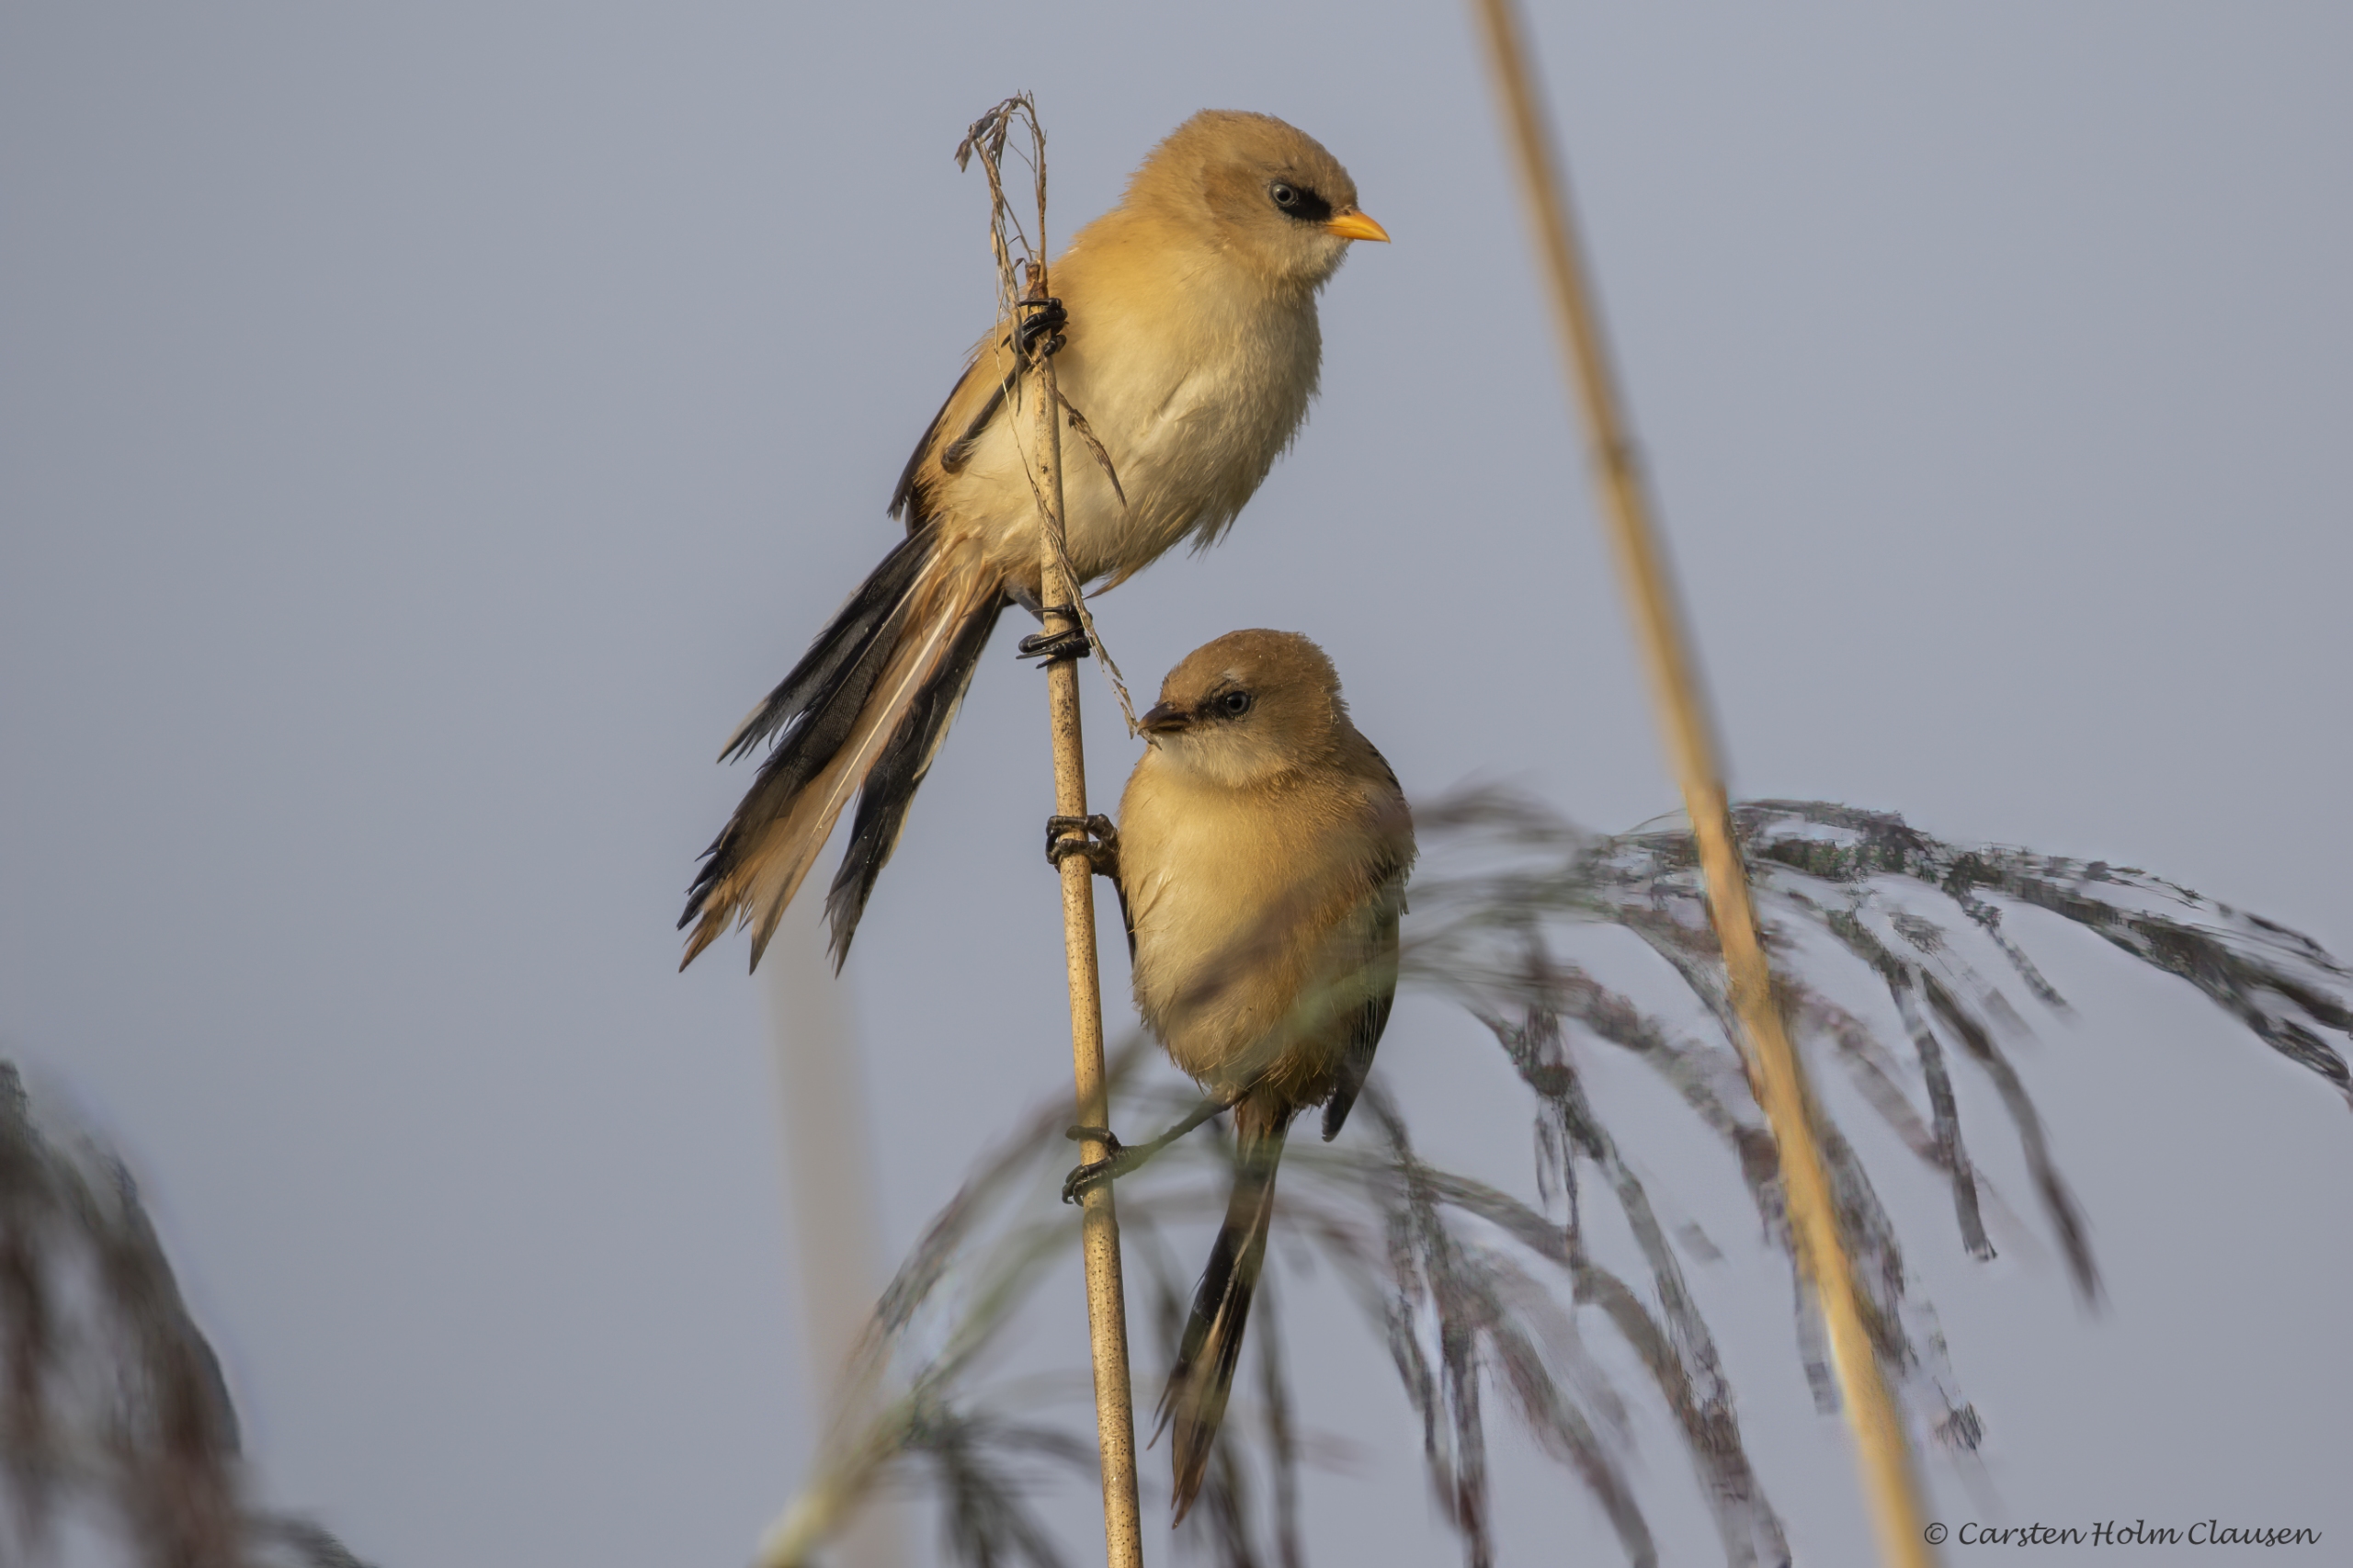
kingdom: Animalia
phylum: Chordata
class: Aves
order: Passeriformes
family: Panuridae
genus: Panurus
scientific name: Panurus biarmicus
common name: Skægmejse
